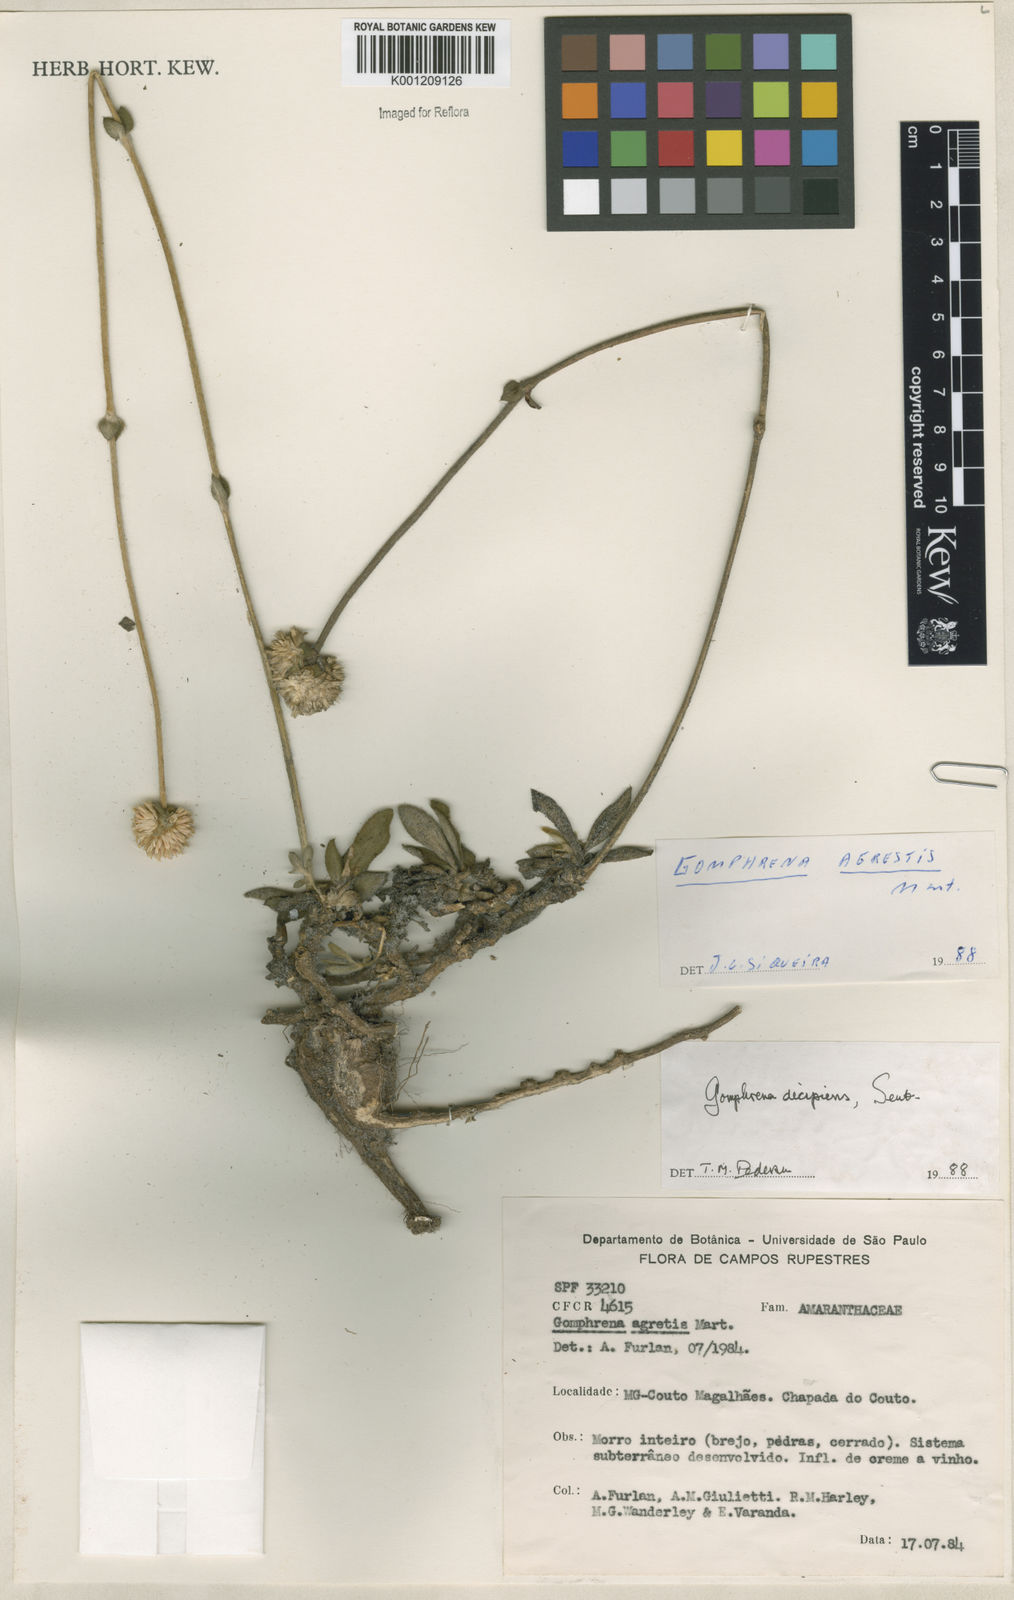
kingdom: Plantae
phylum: Tracheophyta
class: Magnoliopsida
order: Caryophyllales
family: Amaranthaceae
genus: Gomphrena
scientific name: Gomphrena decipiens
